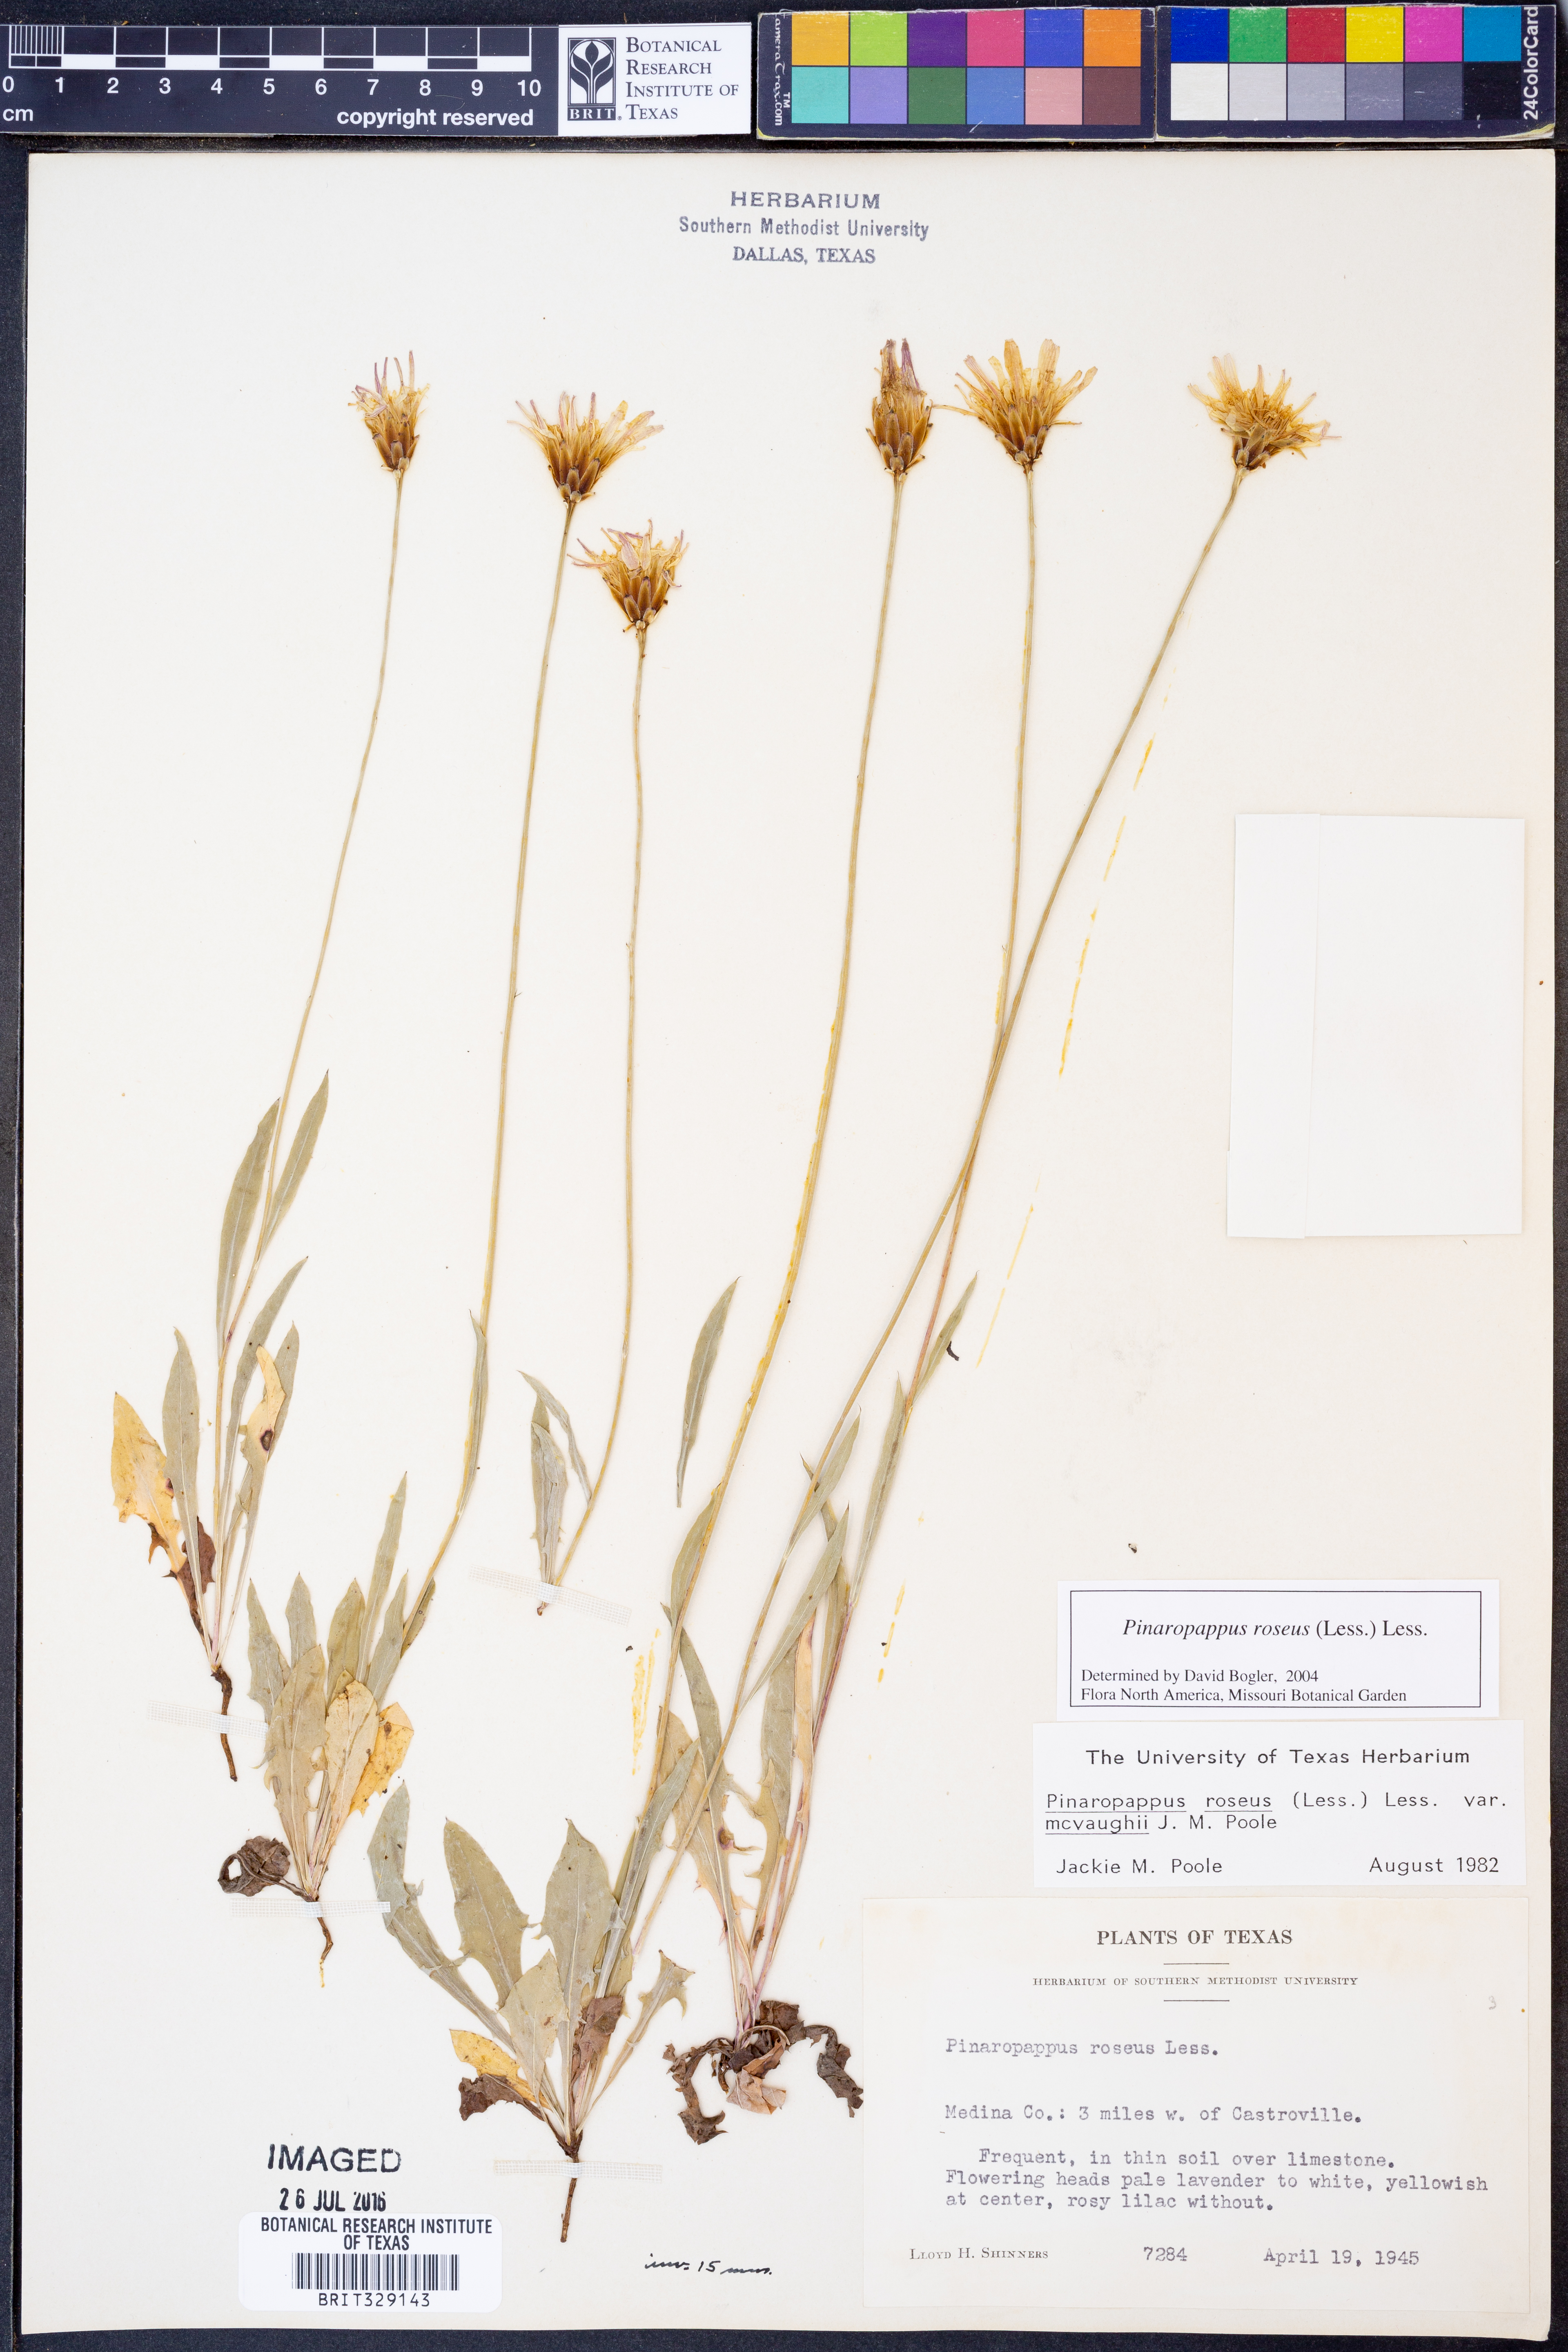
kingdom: Plantae
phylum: Tracheophyta
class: Magnoliopsida
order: Asterales
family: Asteraceae
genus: Pinaropappus
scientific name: Pinaropappus roseus
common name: Rock-lettuce
